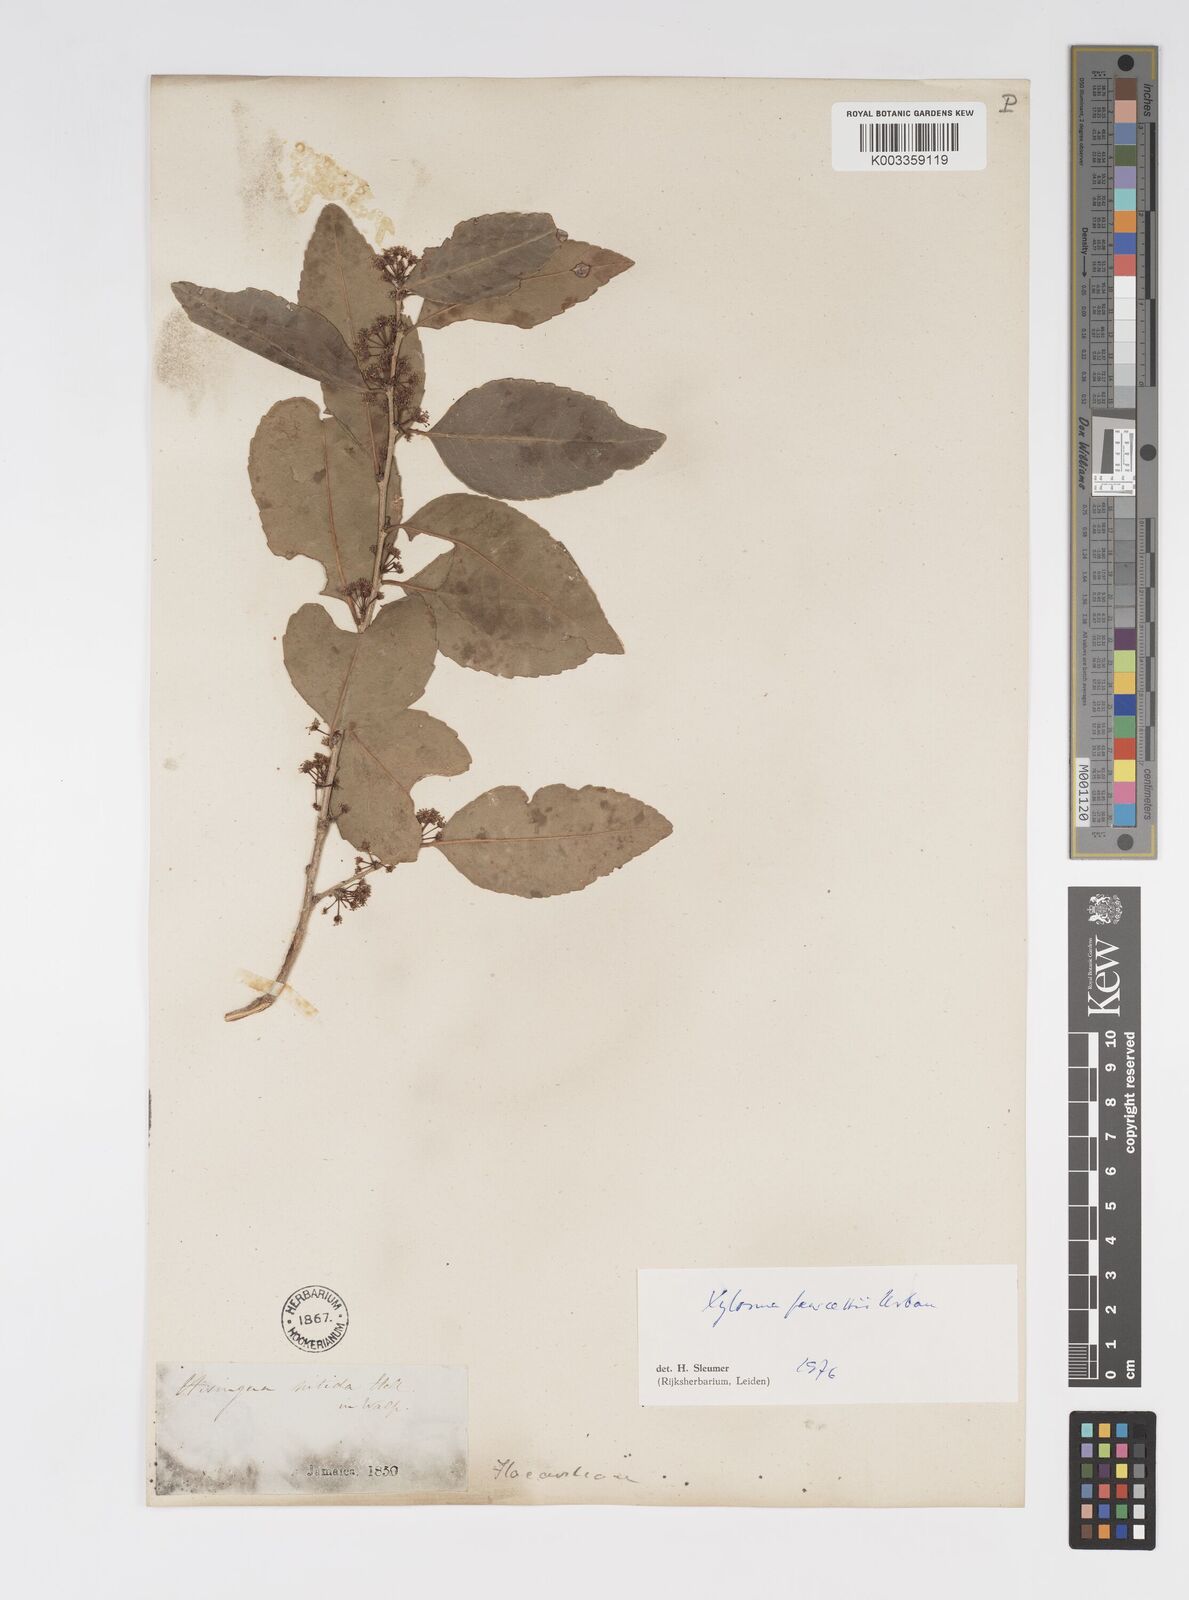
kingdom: Plantae
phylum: Tracheophyta
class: Magnoliopsida
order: Malpighiales
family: Salicaceae
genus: Xylosma
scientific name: Xylosma fawcettii
